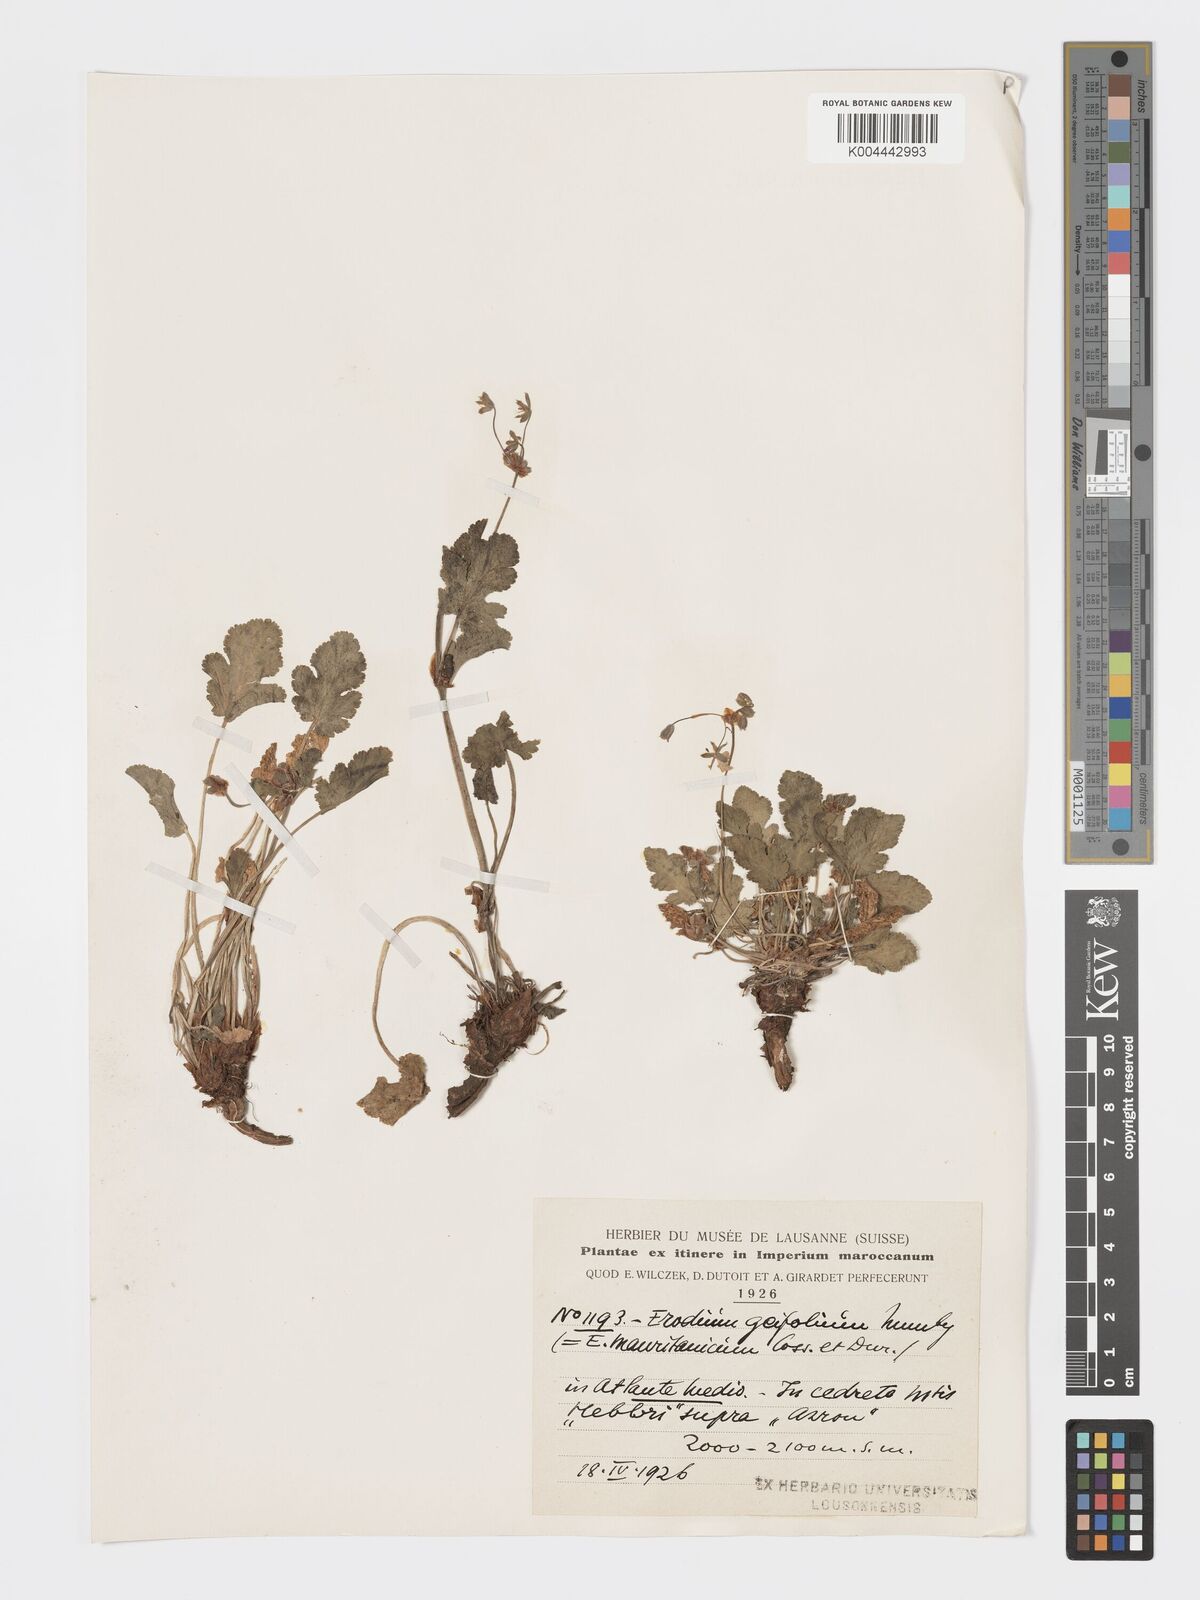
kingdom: Plantae
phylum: Tracheophyta
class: Magnoliopsida
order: Geraniales
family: Geraniaceae
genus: Erodium
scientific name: Erodium
